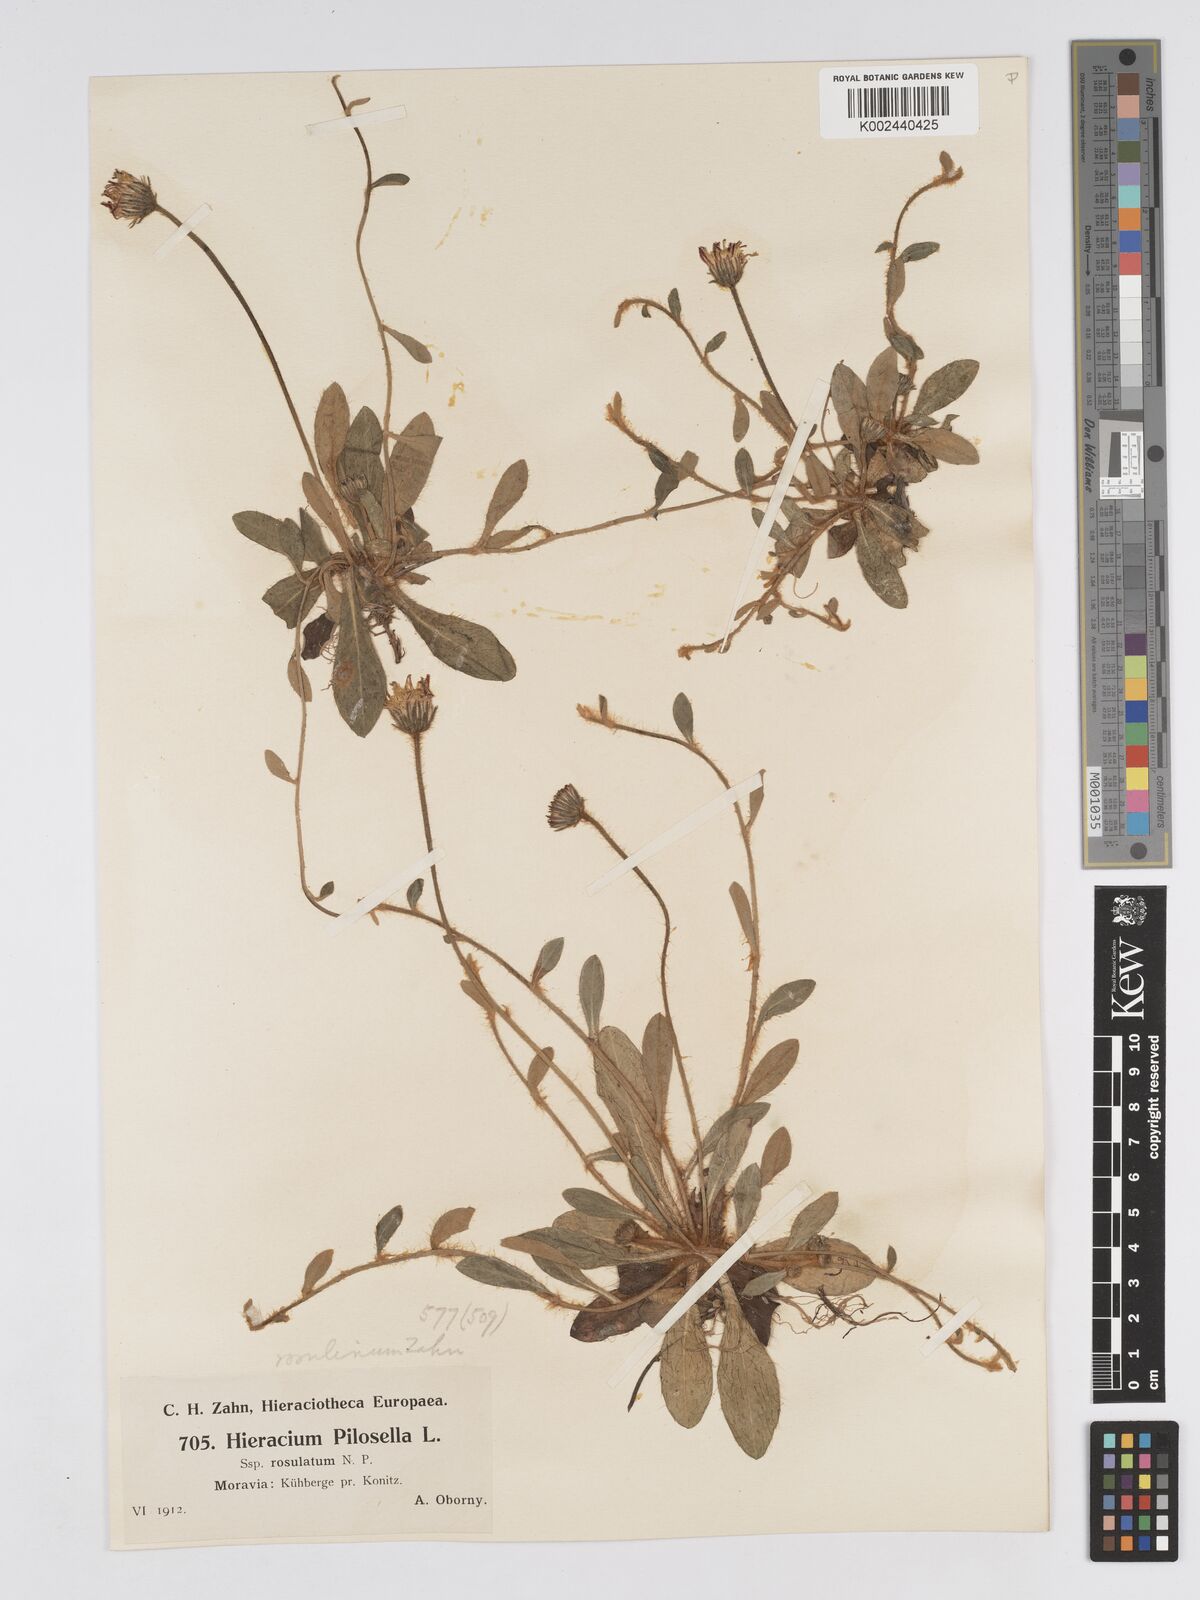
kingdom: Plantae
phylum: Tracheophyta
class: Magnoliopsida
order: Asterales
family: Asteraceae
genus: Pilosella
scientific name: Pilosella officinarum
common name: Mouse-ear hawkweed
